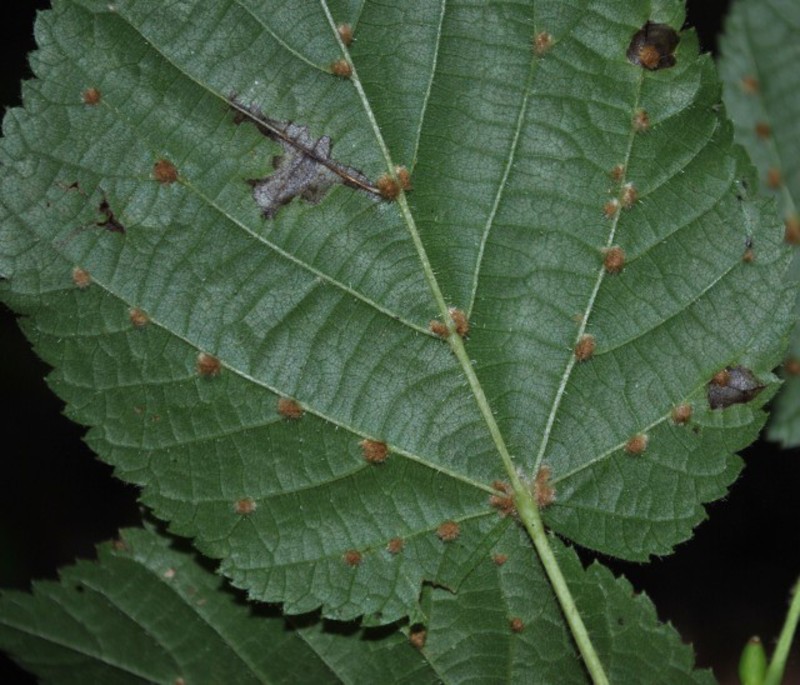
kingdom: Animalia
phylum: Arthropoda
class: Arachnida
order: Trombidiformes
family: Eriophyidae
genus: Eriophyes
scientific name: Eriophyes exilis
